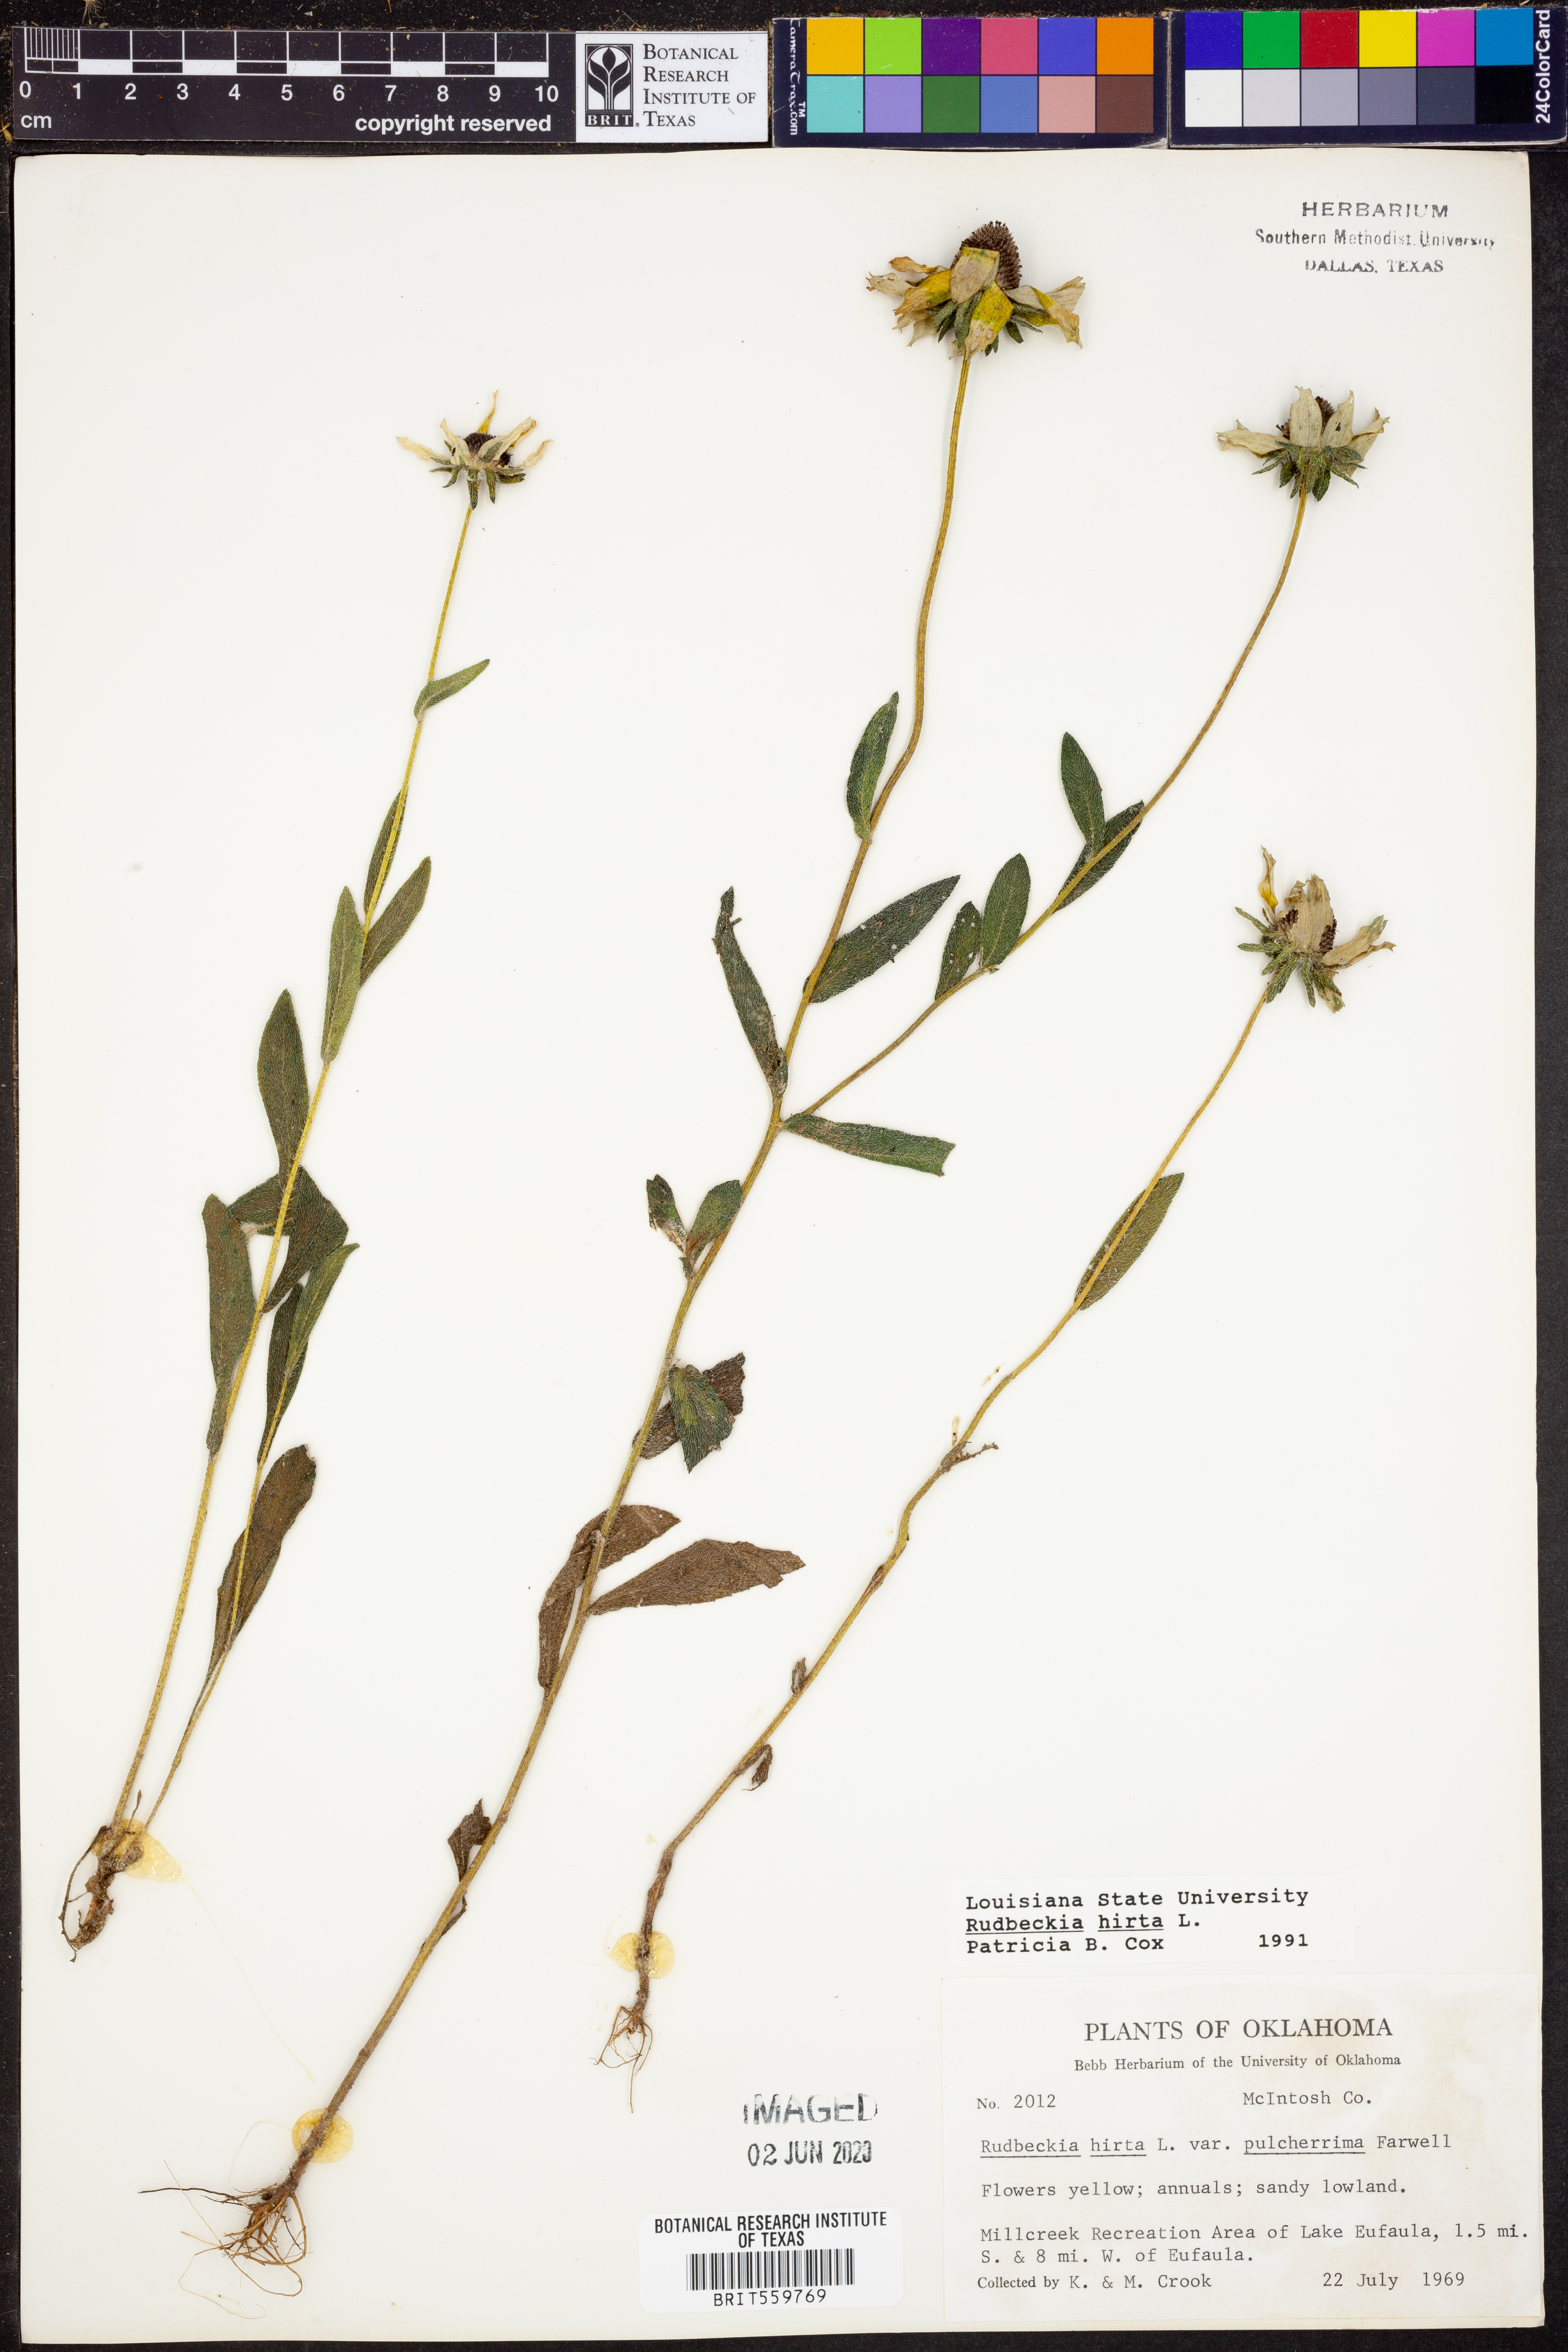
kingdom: Plantae
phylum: Tracheophyta
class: Magnoliopsida
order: Asterales
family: Asteraceae
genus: Rudbeckia
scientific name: Rudbeckia hirta
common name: Black-eyed-susan
